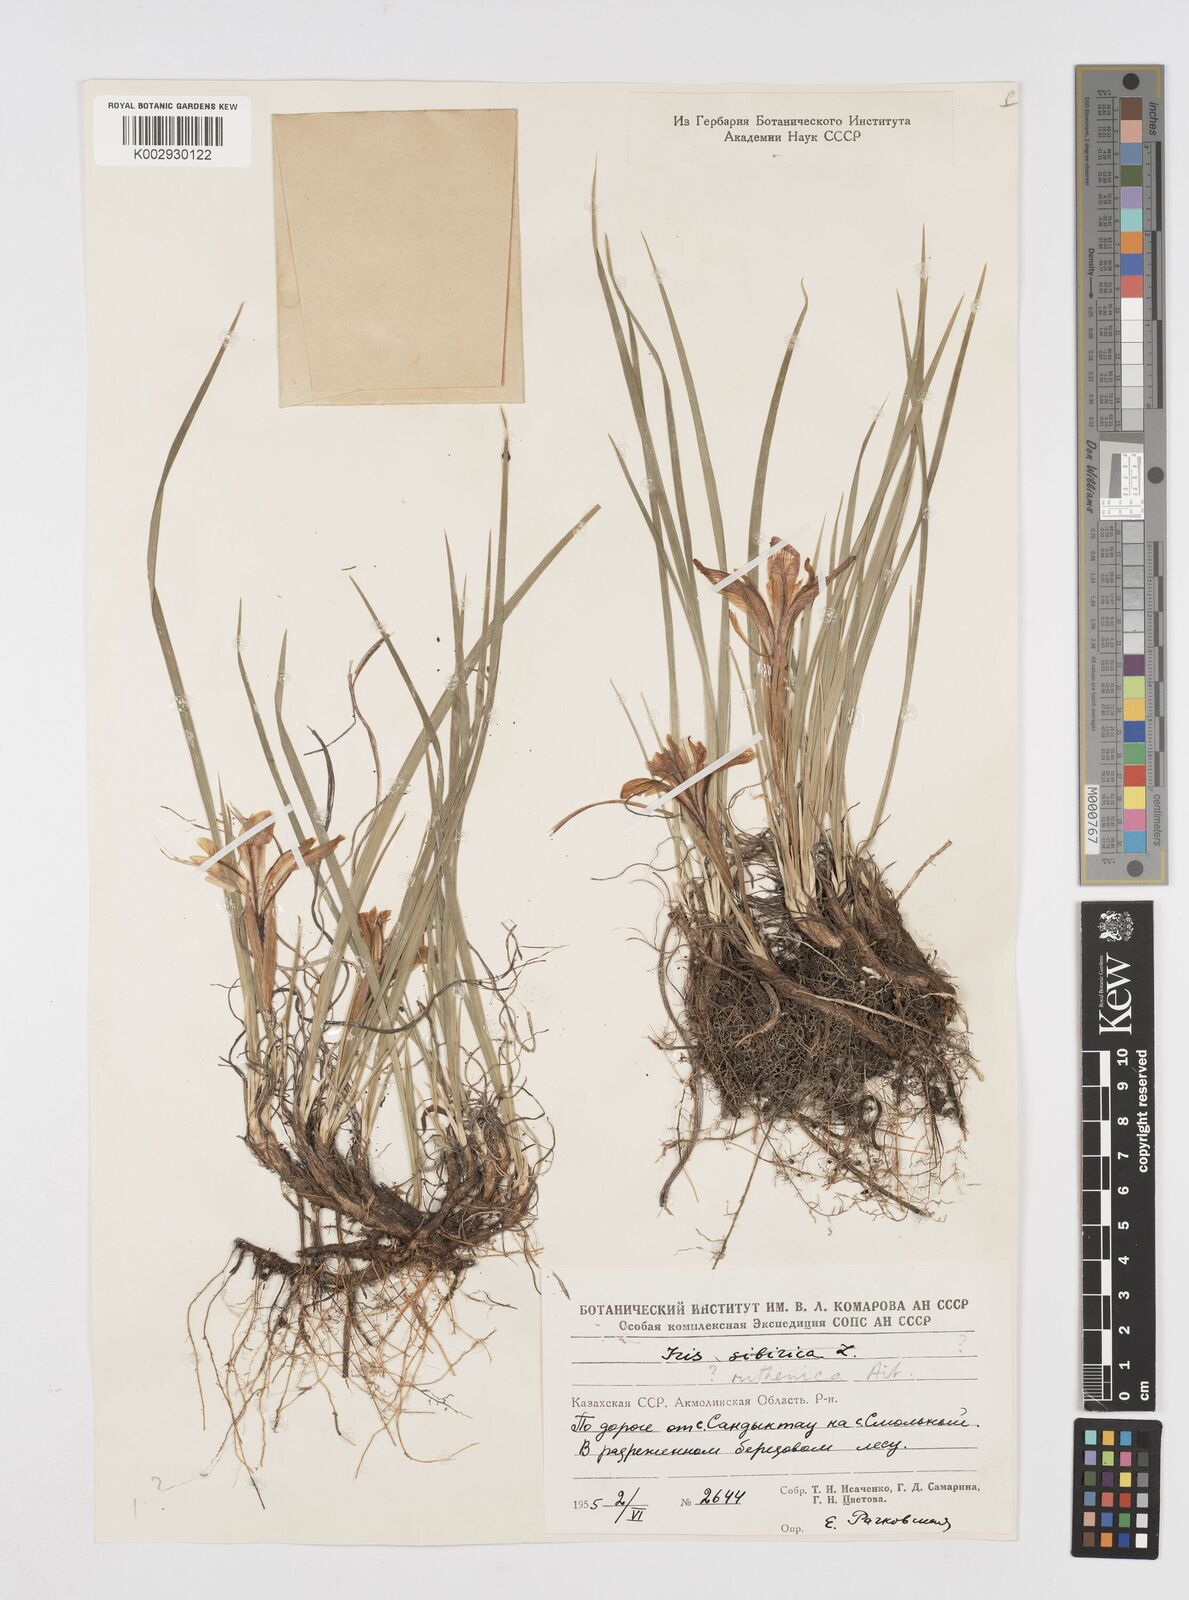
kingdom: Plantae
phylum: Tracheophyta
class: Liliopsida
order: Asparagales
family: Iridaceae
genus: Iris
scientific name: Iris ruthenica
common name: Purple-bract iris
